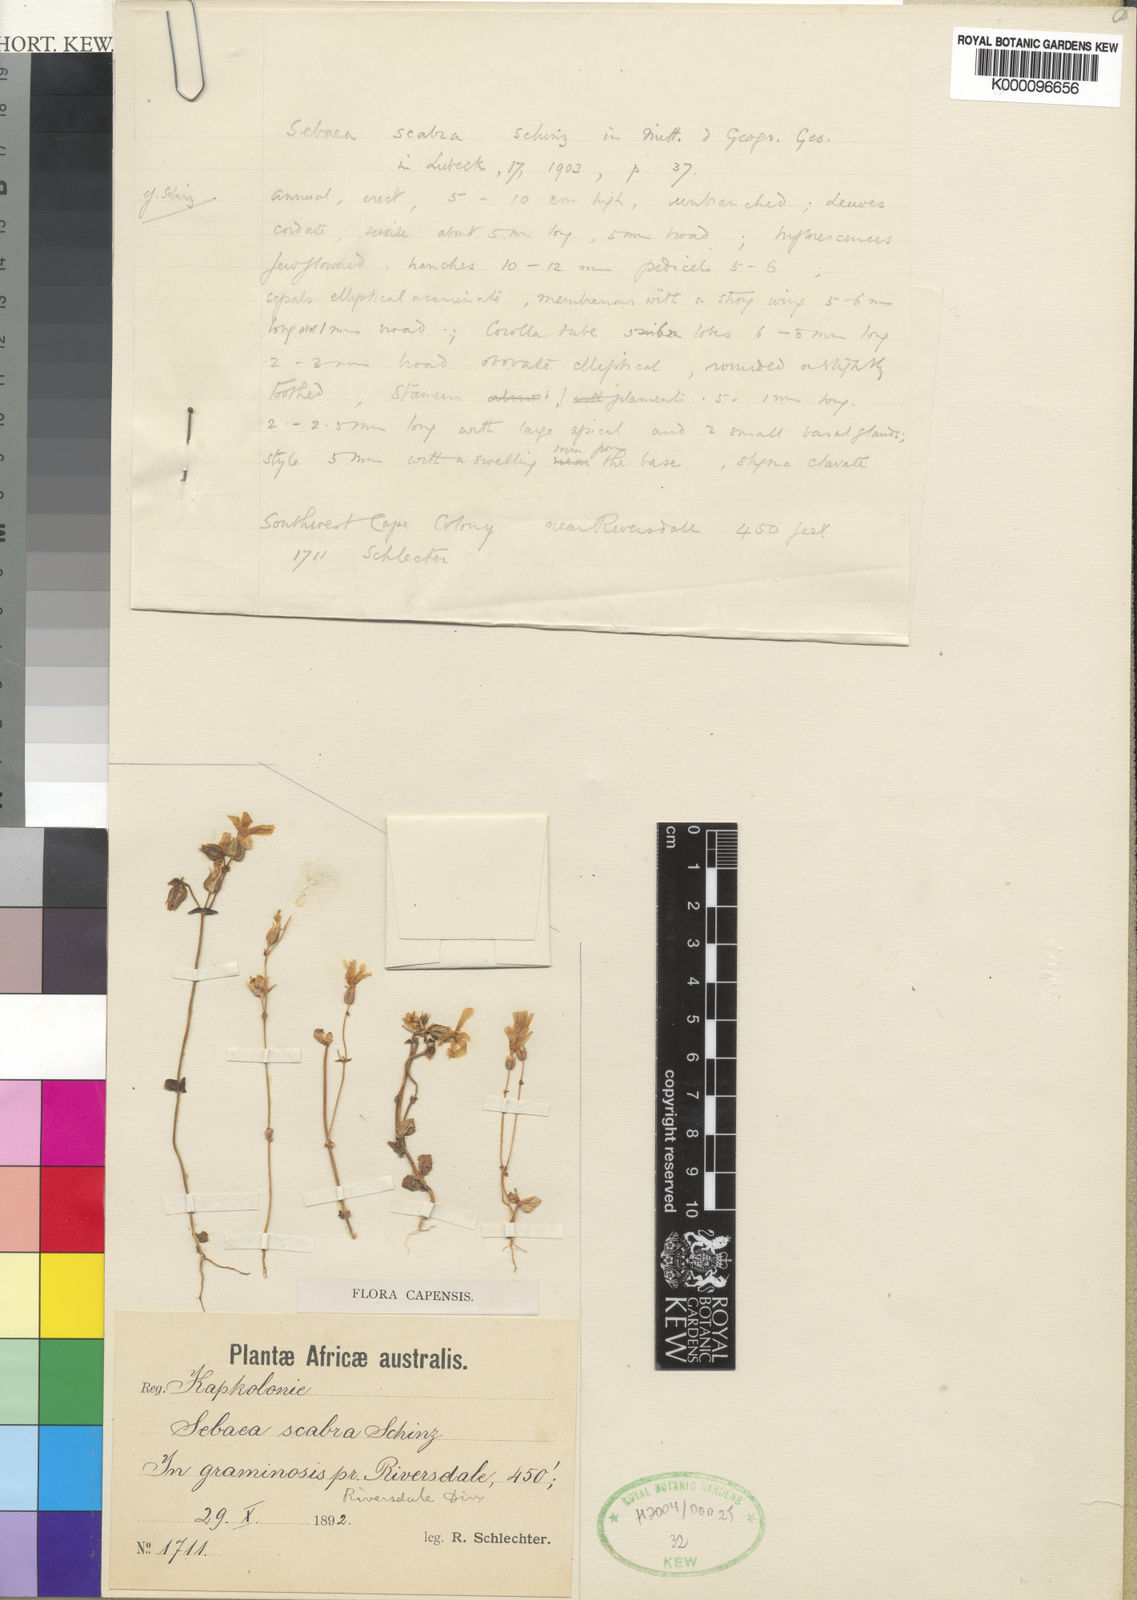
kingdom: Plantae
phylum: Tracheophyta
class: Magnoliopsida
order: Gentianales
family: Gentianaceae
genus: Sebaea
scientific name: Sebaea scabra
